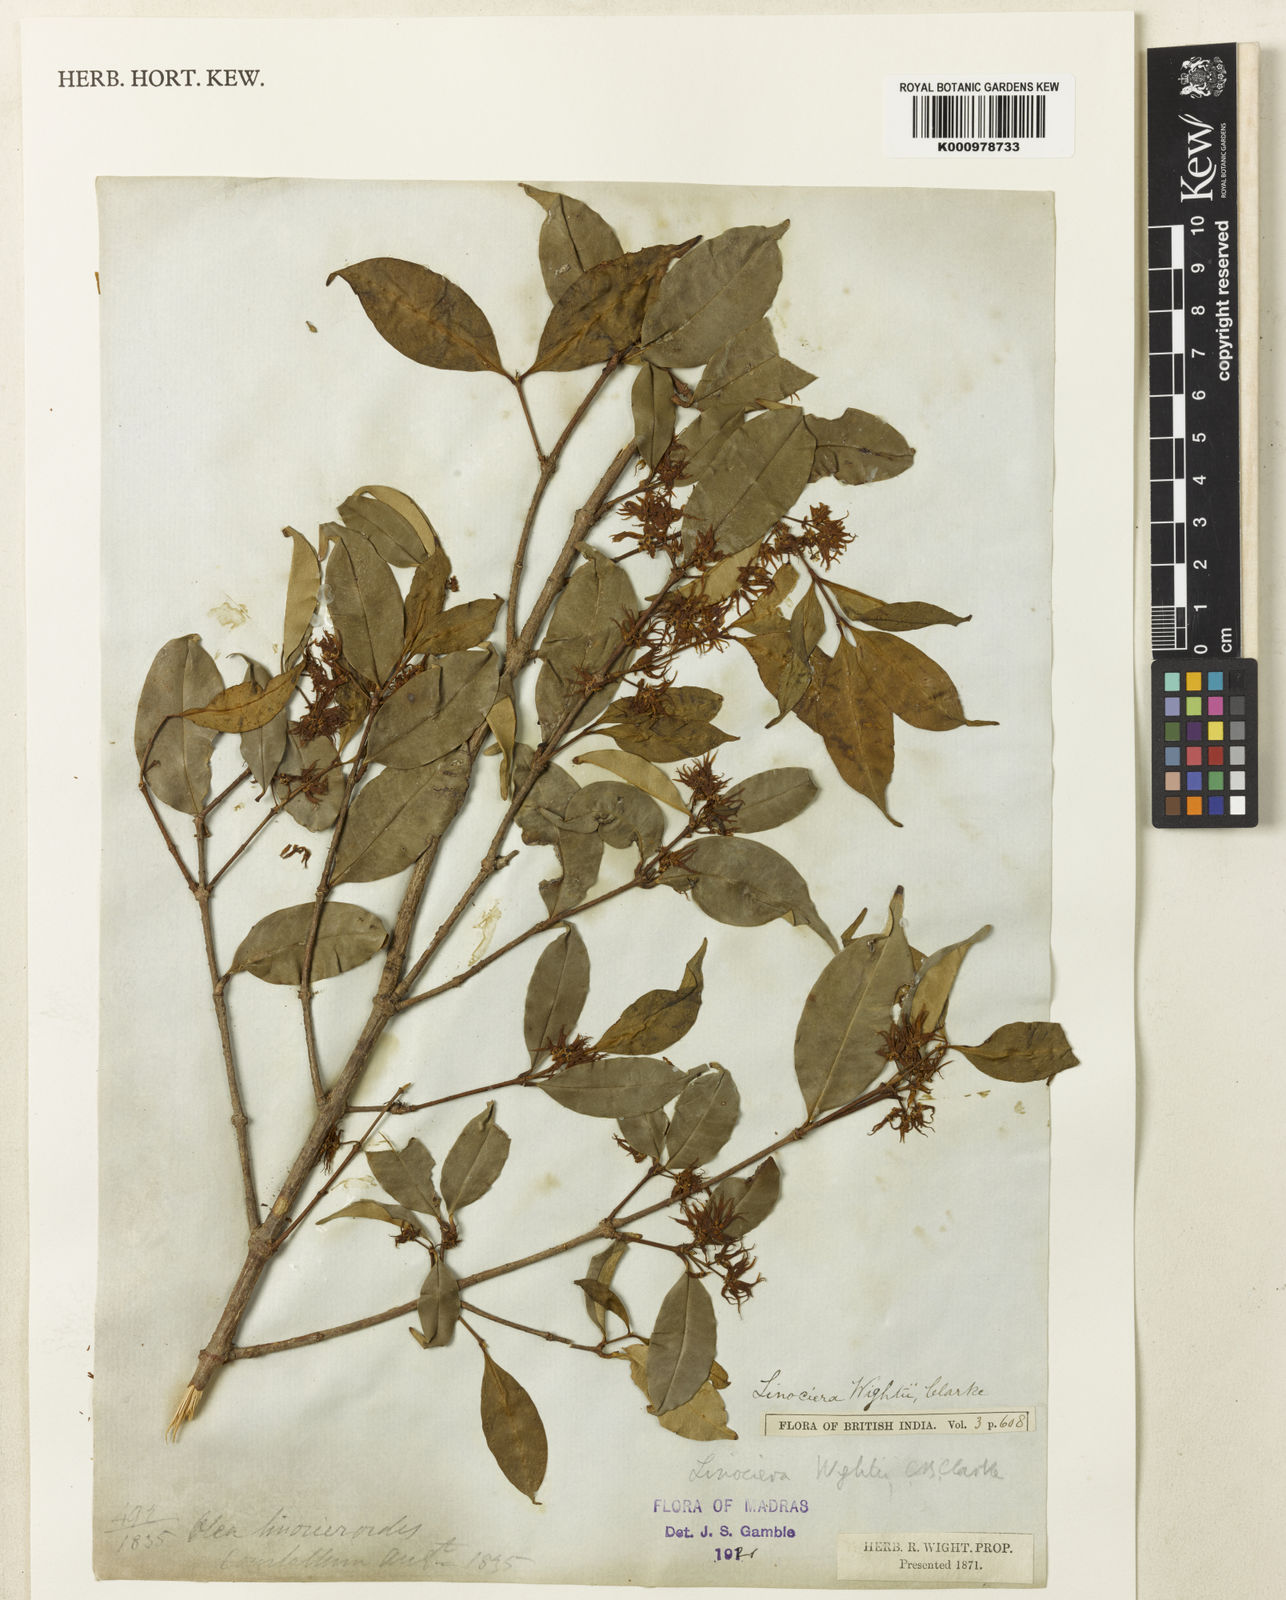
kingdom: Plantae
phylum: Tracheophyta
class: Magnoliopsida
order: Lamiales
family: Oleaceae
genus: Chionanthus
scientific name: Chionanthus mala-elengi
